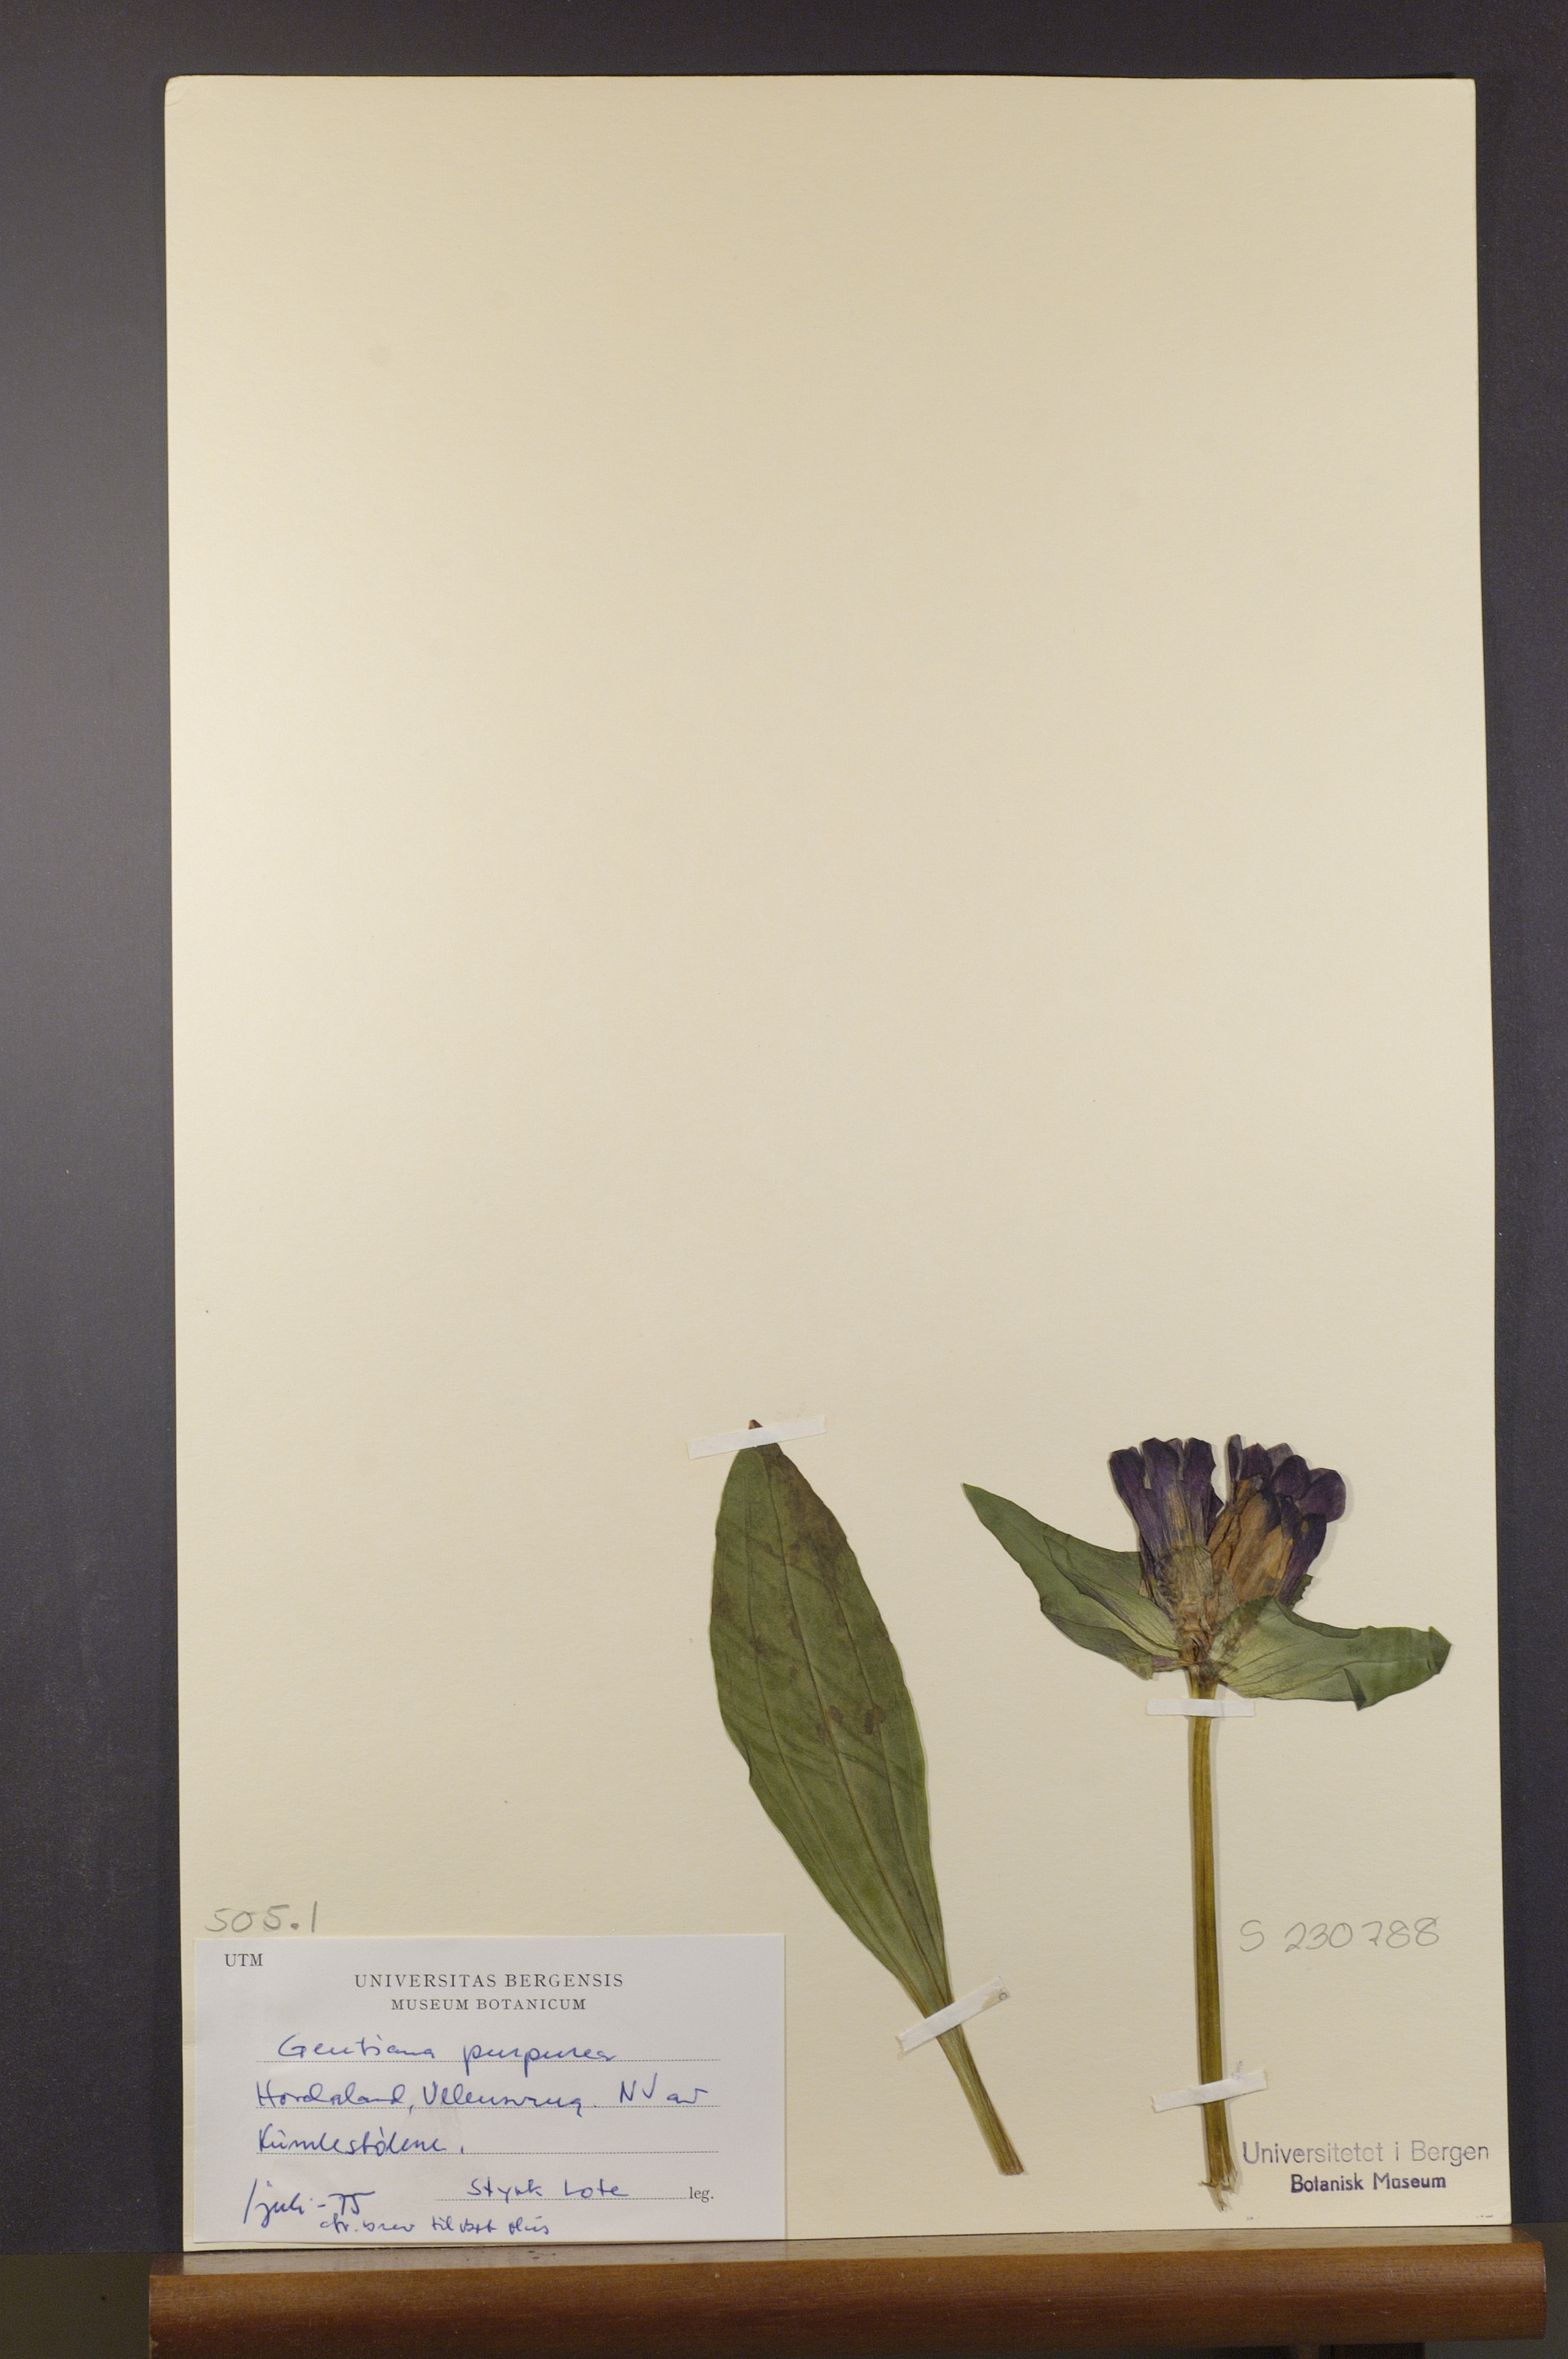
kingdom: Plantae
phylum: Tracheophyta
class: Magnoliopsida
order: Gentianales
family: Gentianaceae
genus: Gentiana
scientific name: Gentiana purpurea
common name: Purple gentian
